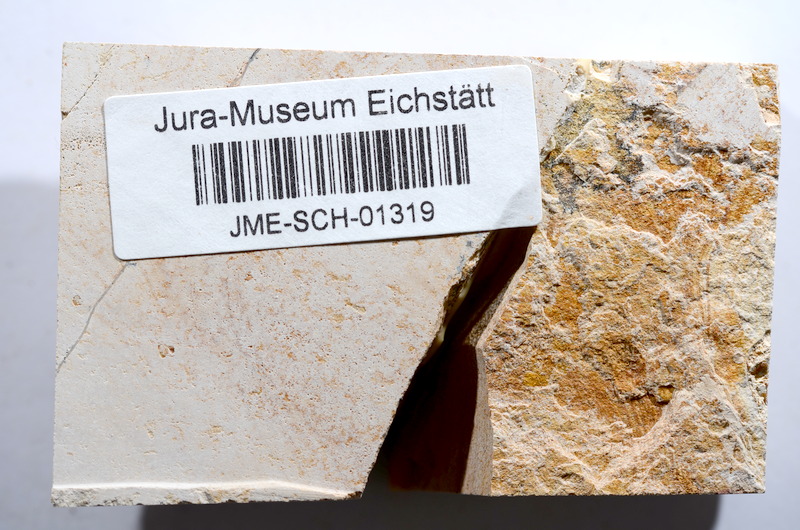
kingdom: Animalia
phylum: Chordata
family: Ascalaboidae
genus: Tharsis
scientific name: Tharsis dubius
